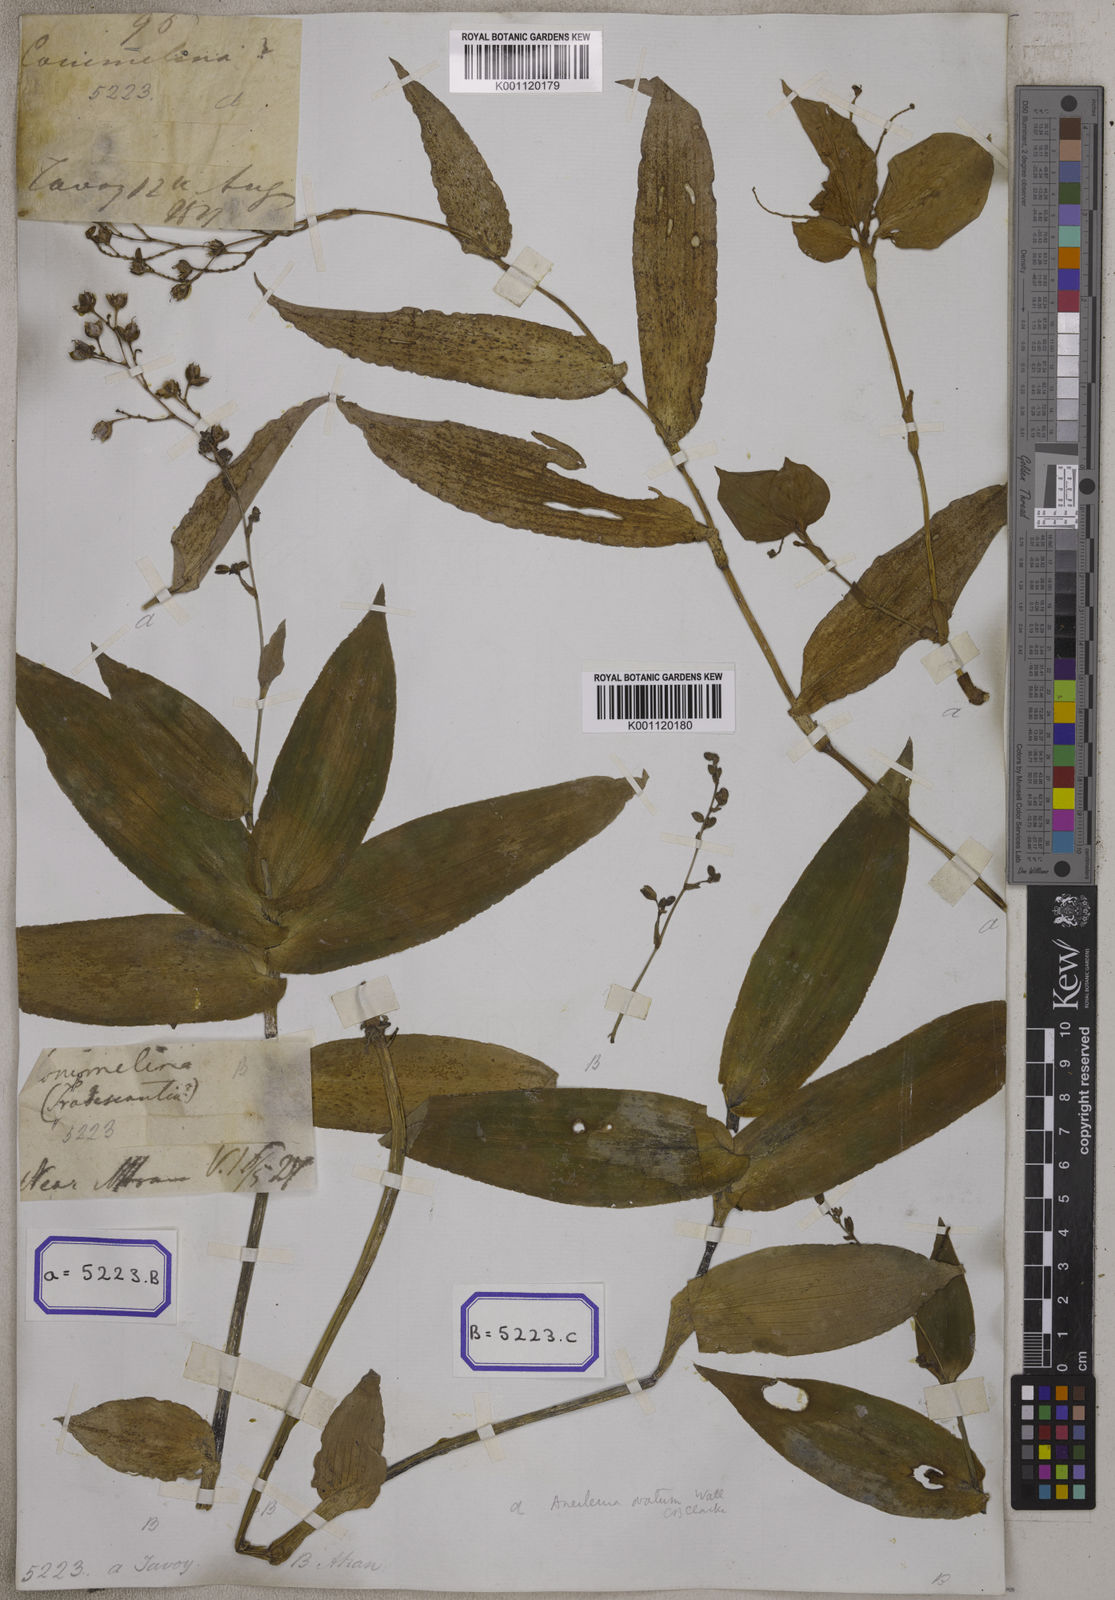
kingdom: Plantae
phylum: Tracheophyta
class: Liliopsida
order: Commelinales
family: Commelinaceae
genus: Murdannia
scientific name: Murdannia japonica
